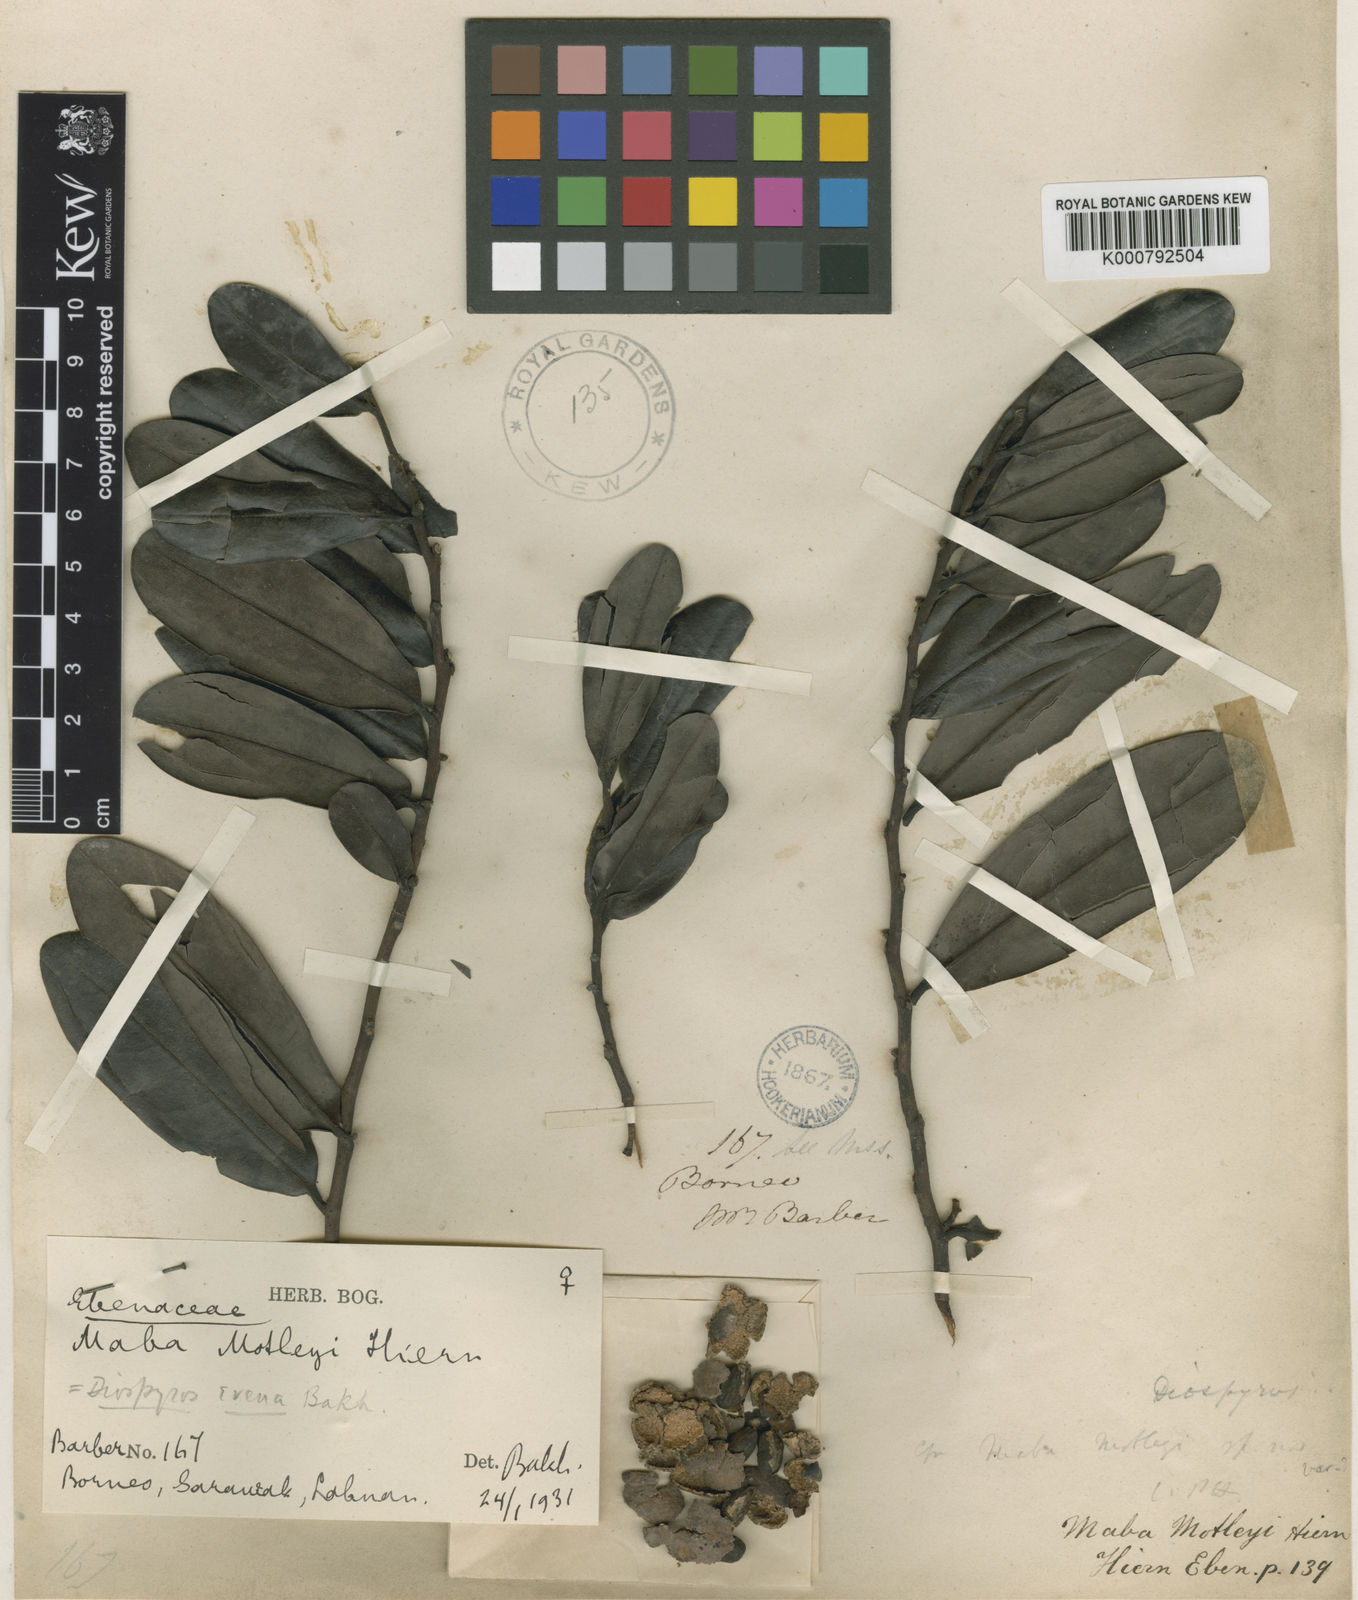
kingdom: Plantae
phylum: Tracheophyta
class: Magnoliopsida
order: Ericales
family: Ebenaceae
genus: Diospyros
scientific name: Diospyros evena
